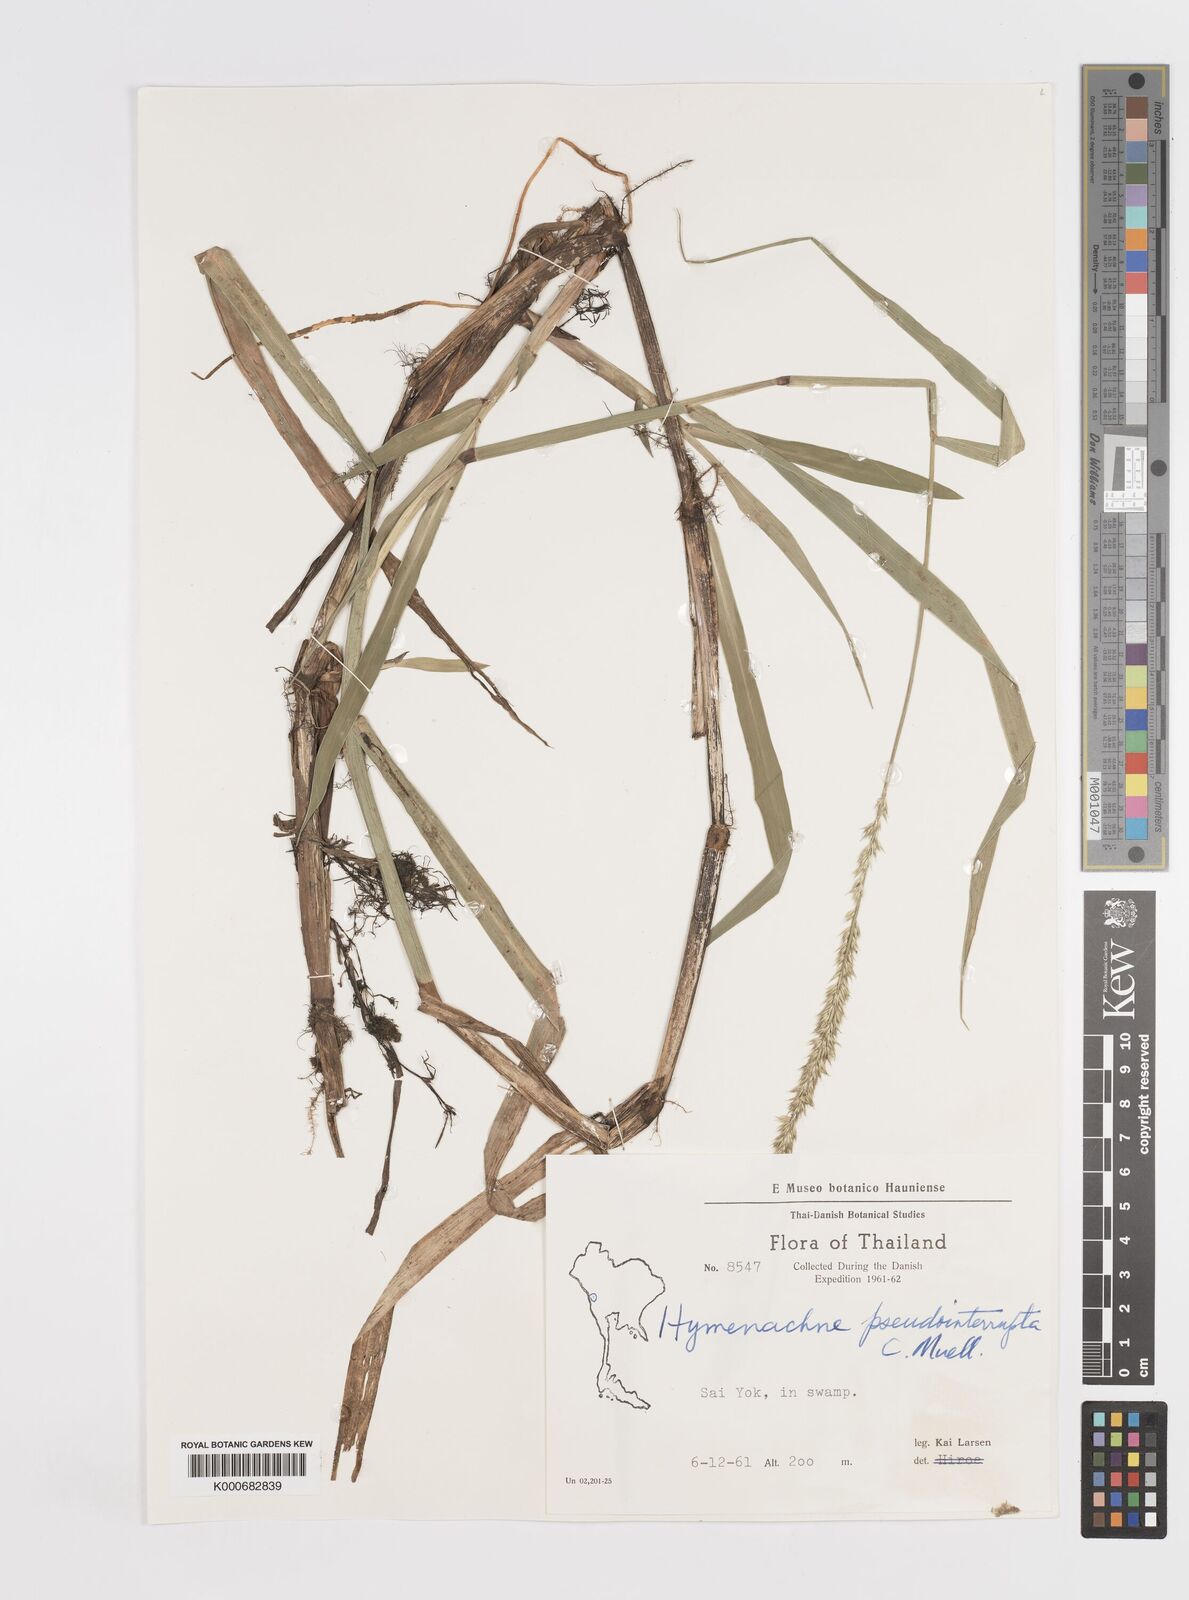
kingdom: Plantae
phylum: Tracheophyta
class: Liliopsida
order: Poales
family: Poaceae
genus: Hymenachne
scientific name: Hymenachne amplexicaulis
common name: Olive hymenachne
